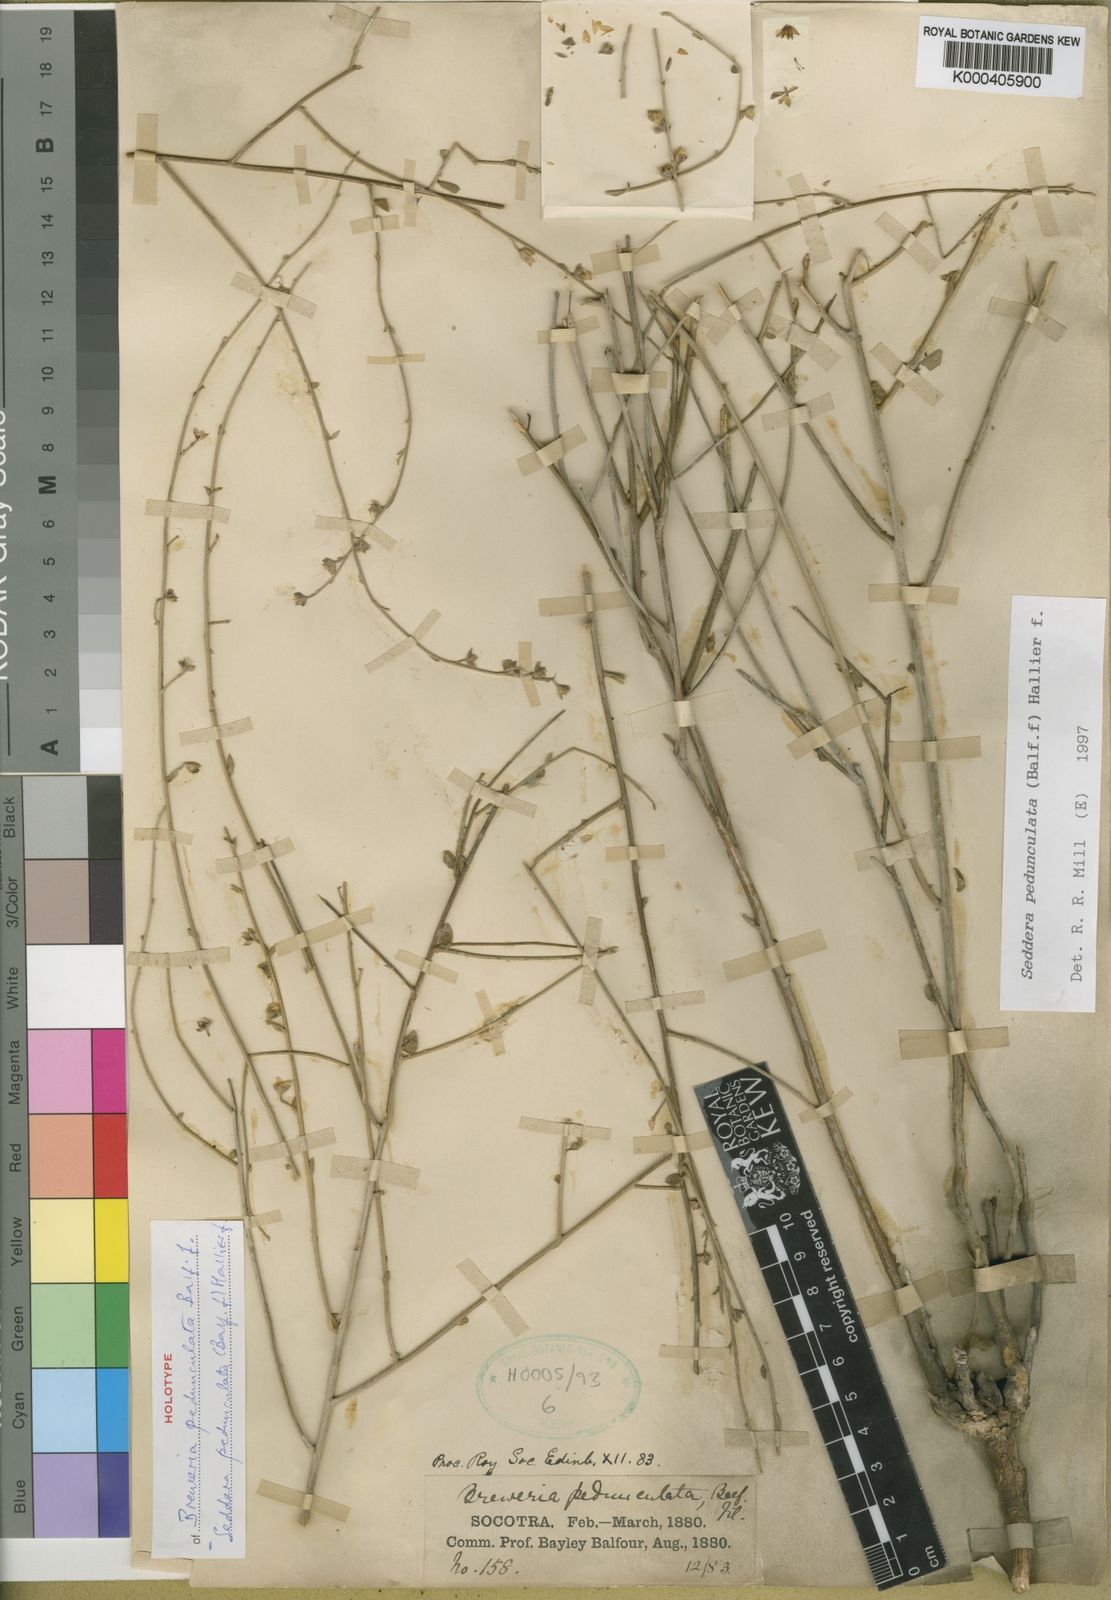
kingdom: Plantae
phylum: Tracheophyta
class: Magnoliopsida
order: Solanales
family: Convolvulaceae
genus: Seddera
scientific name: Seddera pedunculata
